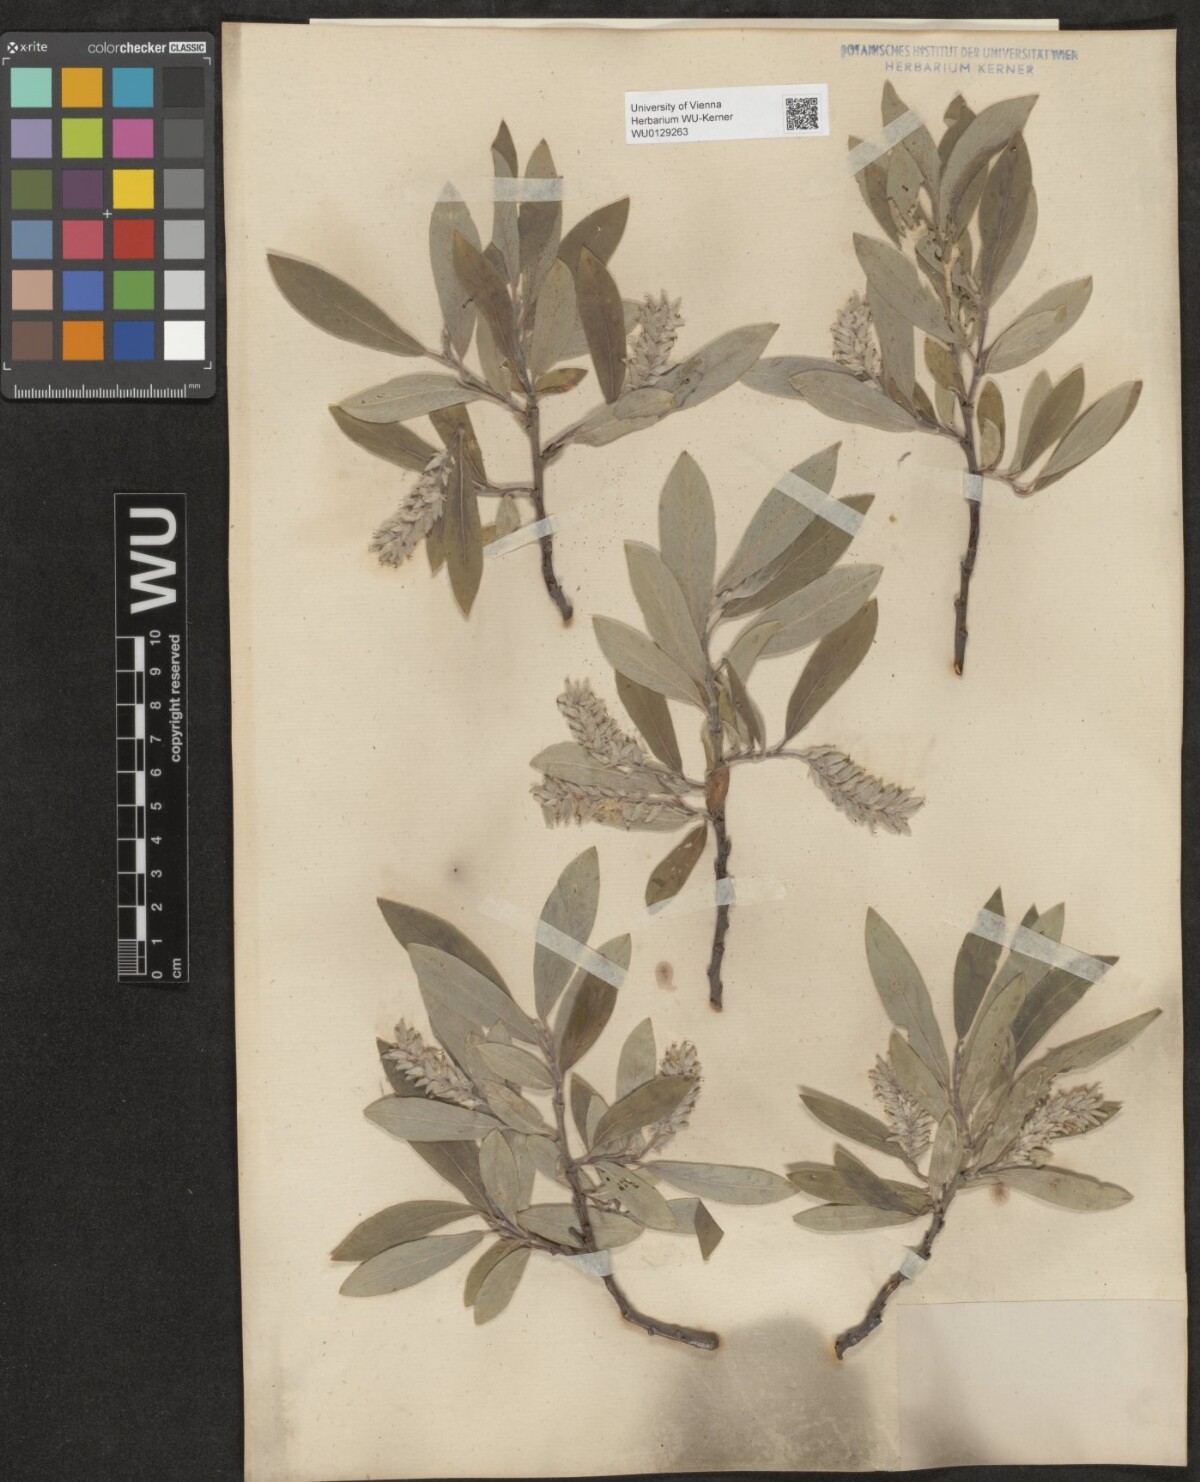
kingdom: Plantae
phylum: Tracheophyta
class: Magnoliopsida
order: Malpighiales
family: Salicaceae
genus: Salix
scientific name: Salix glauca
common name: Glaucous willow
